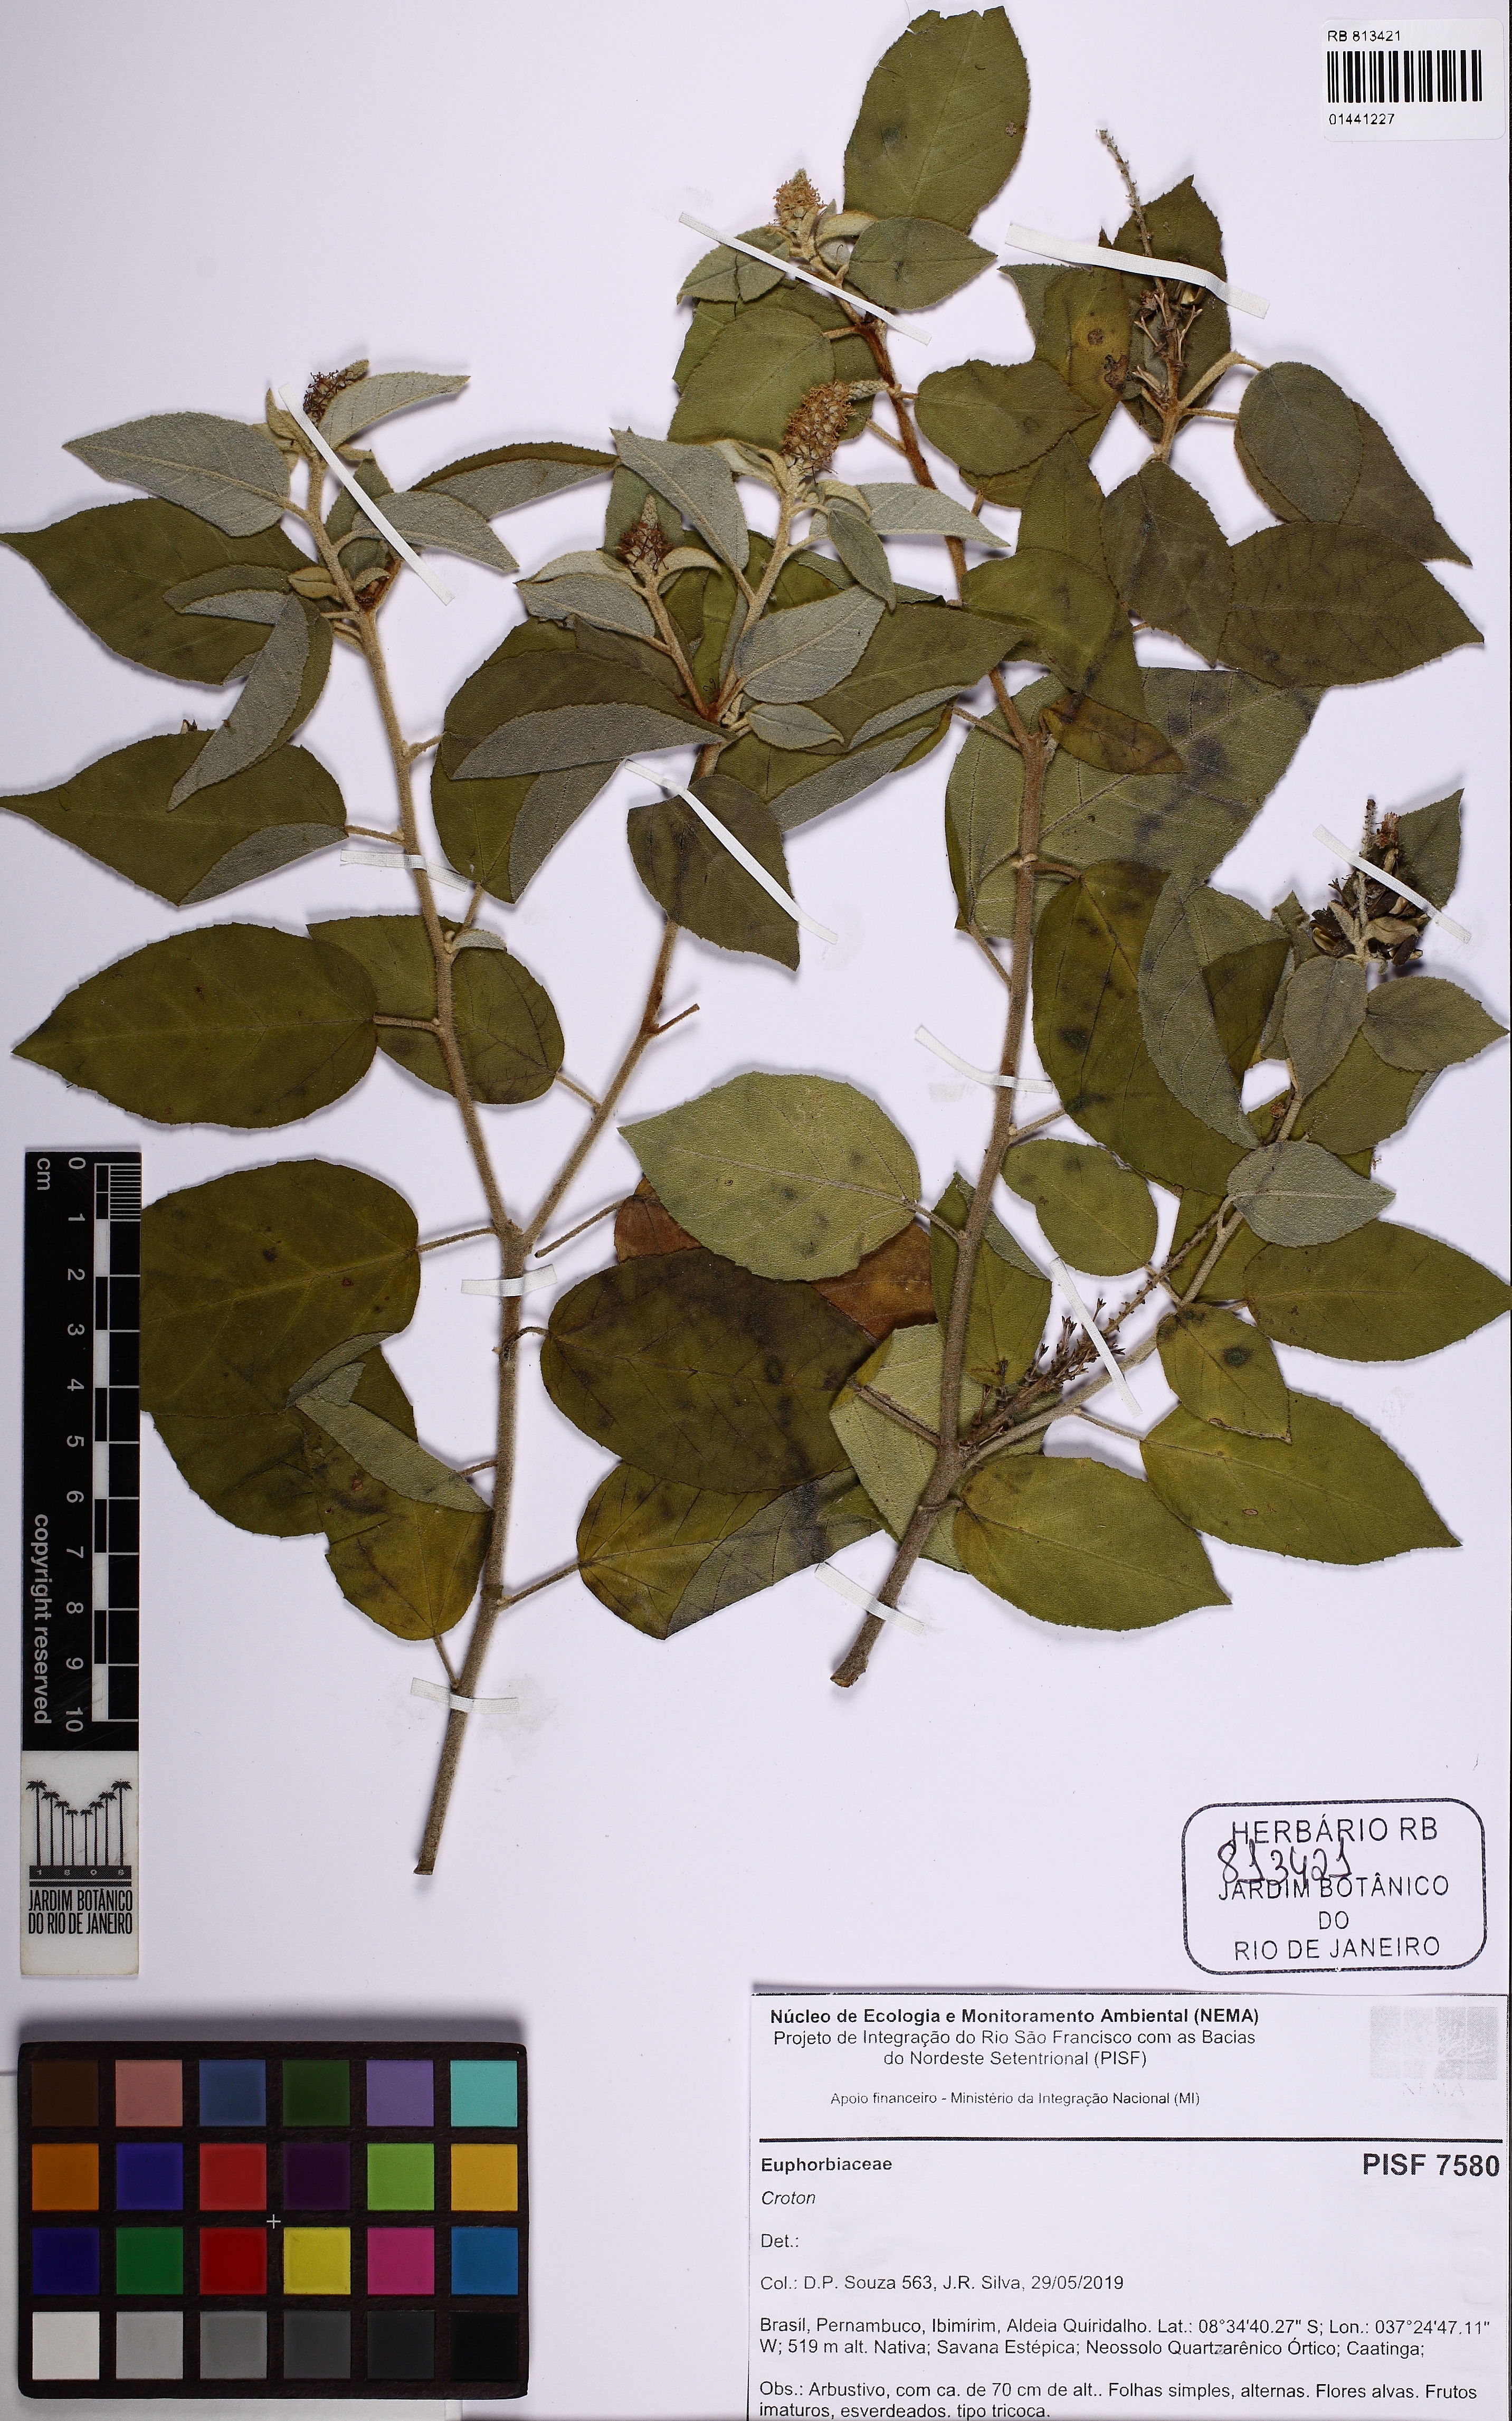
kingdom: Plantae
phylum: Tracheophyta
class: Magnoliopsida
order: Malpighiales
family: Euphorbiaceae
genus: Croton
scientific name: Croton
